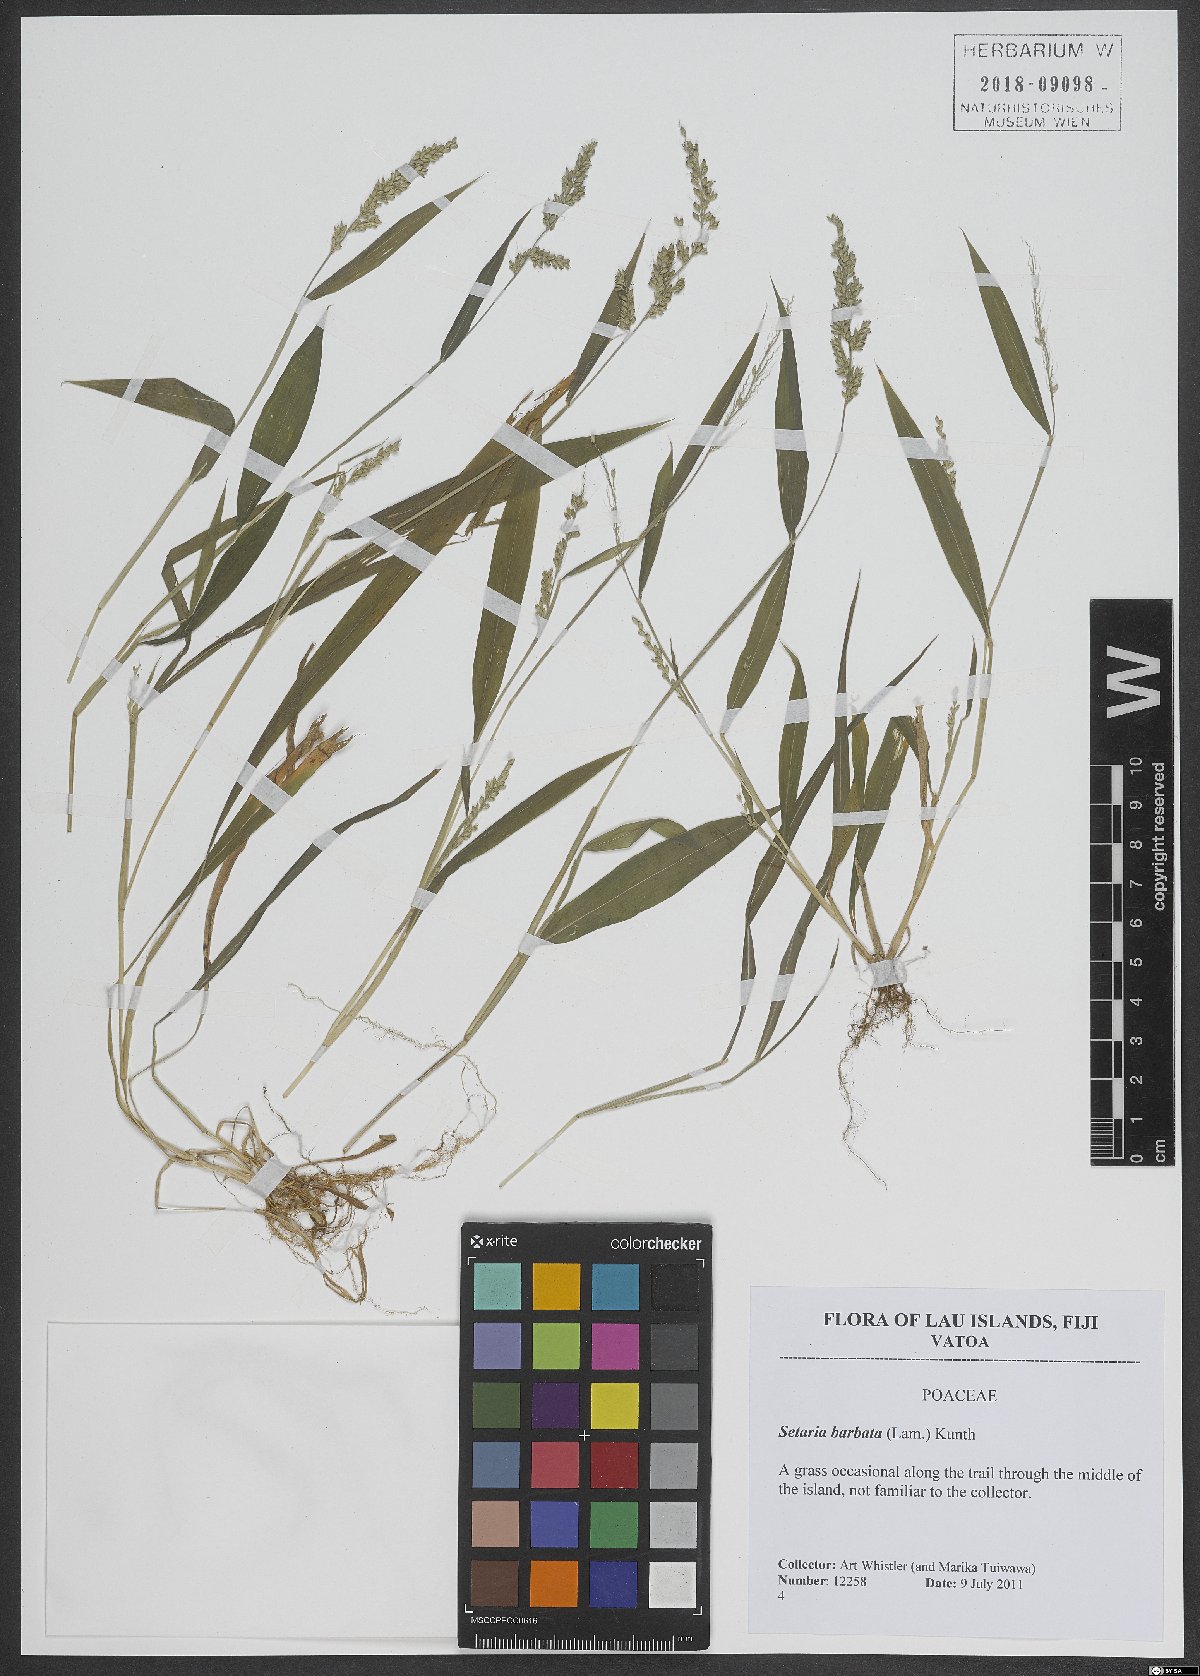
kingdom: Plantae
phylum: Tracheophyta
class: Liliopsida
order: Poales
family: Poaceae
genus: Setaria
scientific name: Setaria barbata
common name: East indian bristlegrass
